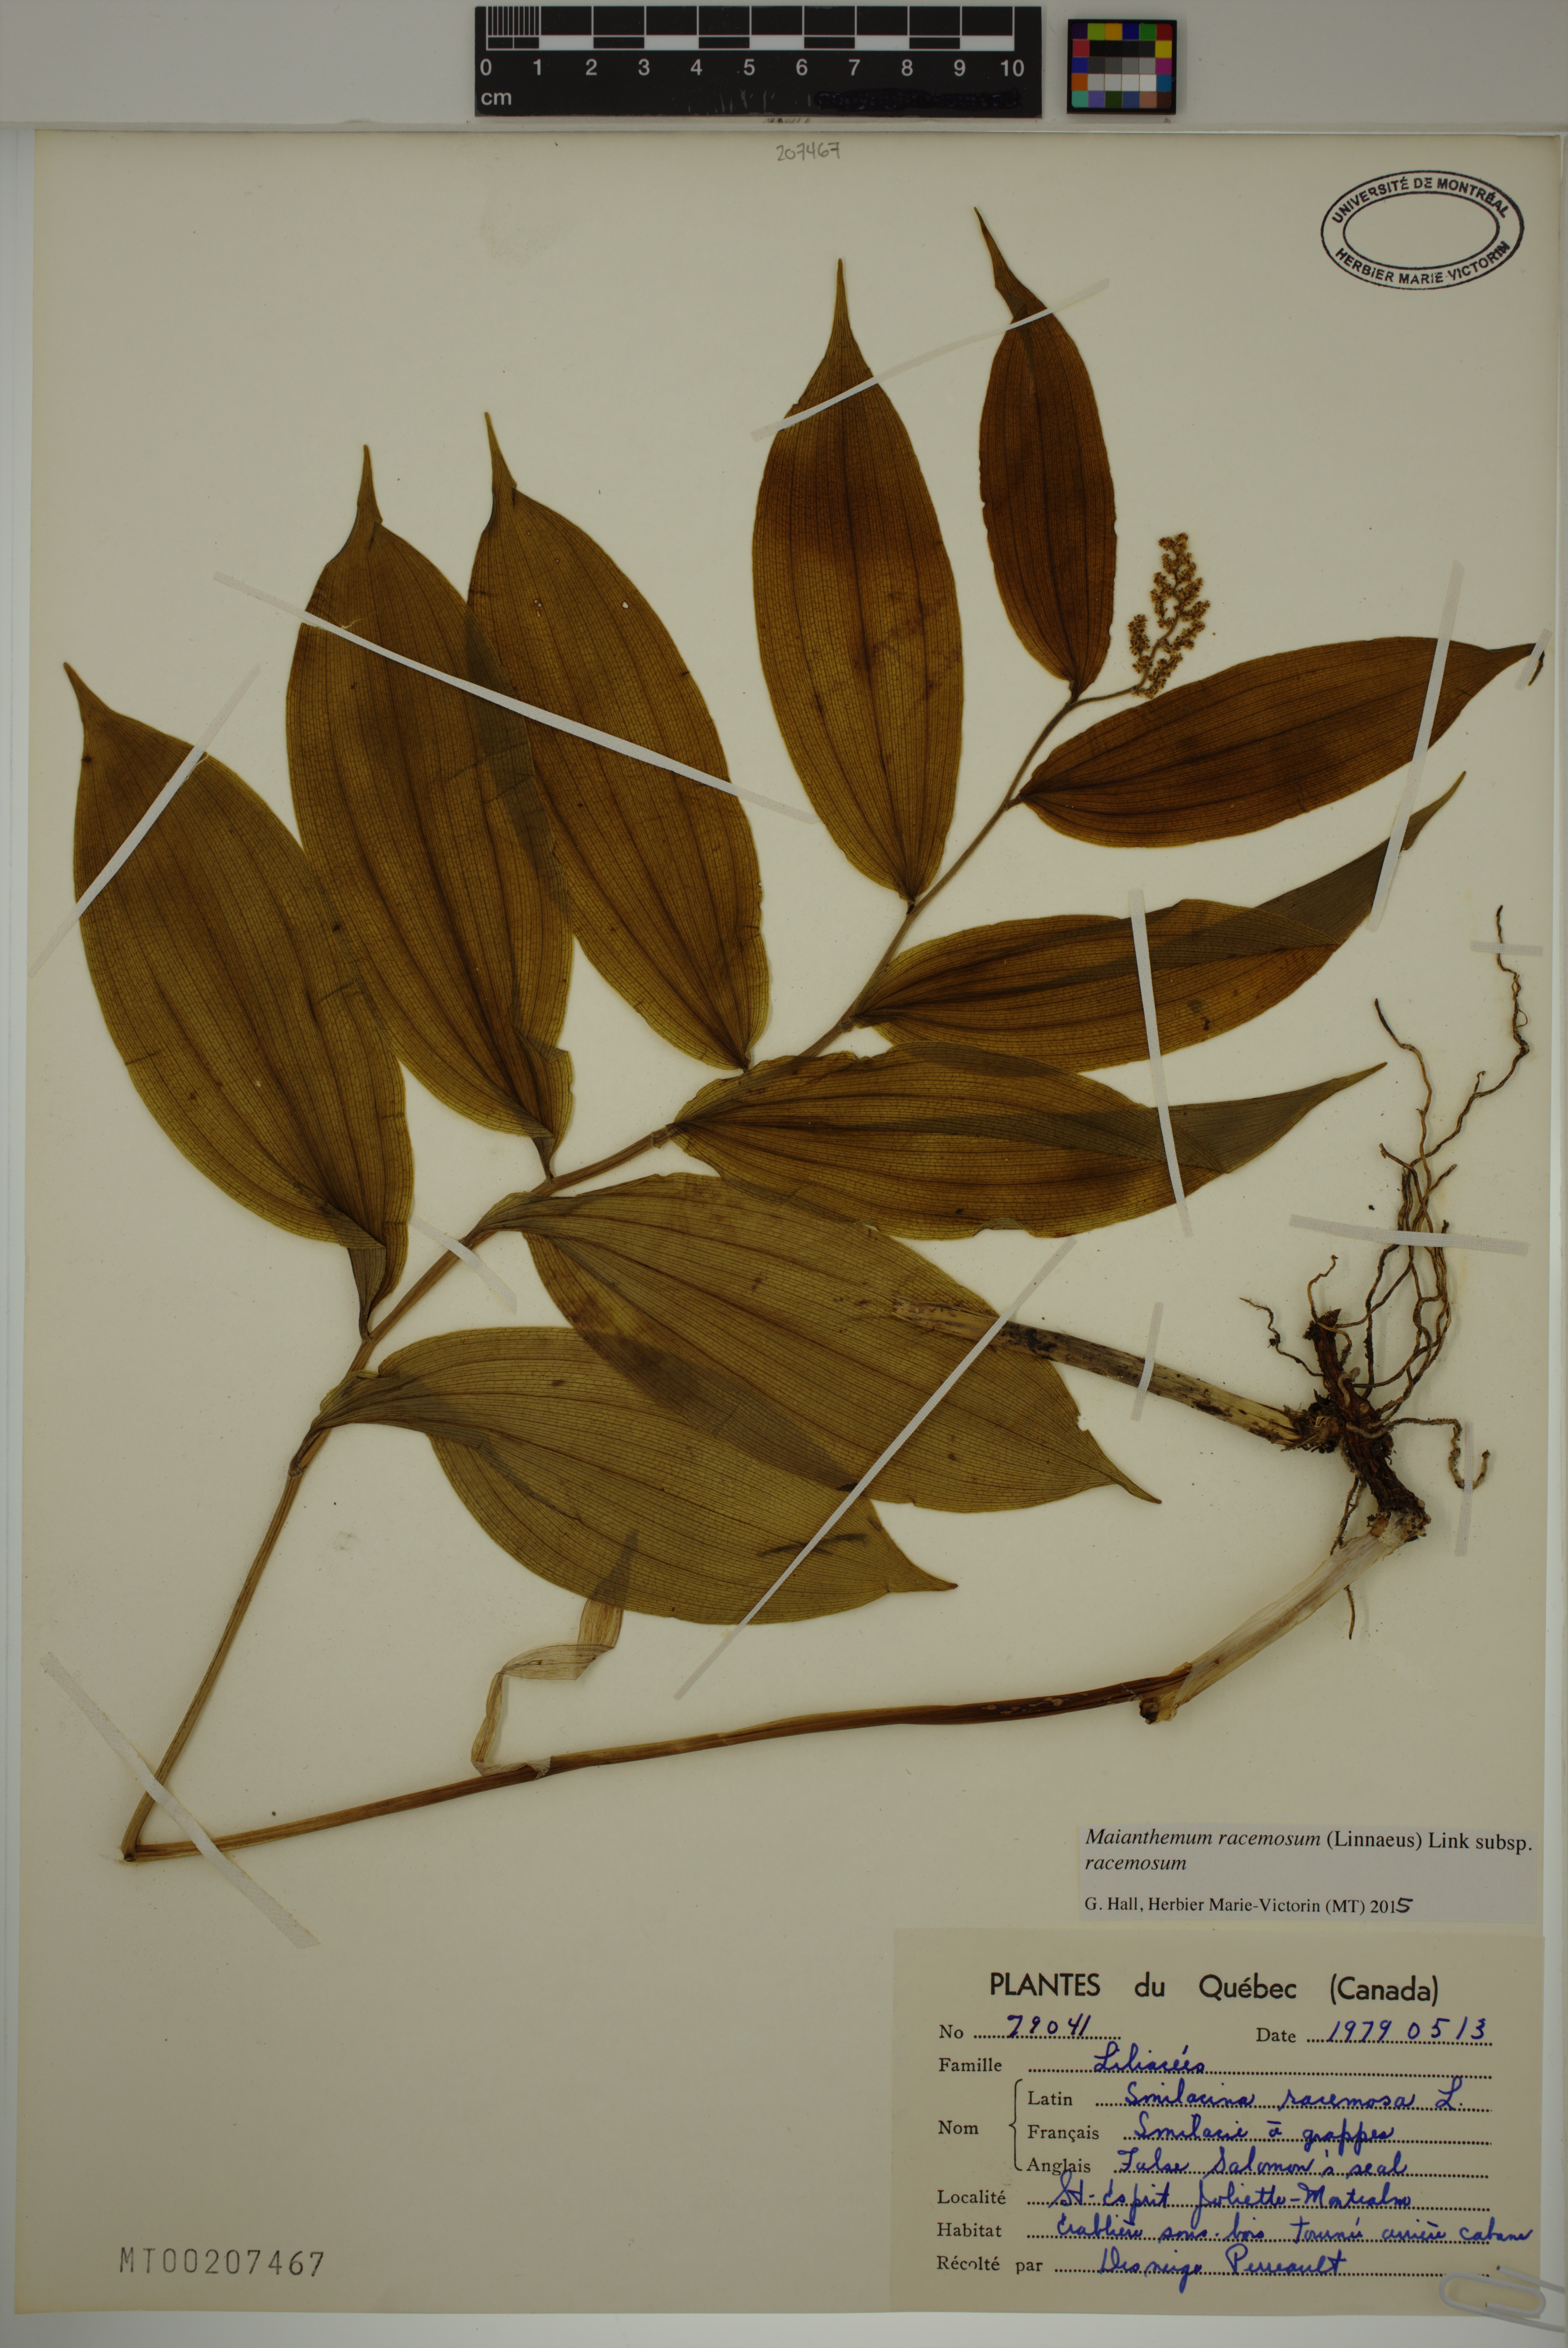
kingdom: Plantae
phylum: Tracheophyta
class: Liliopsida
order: Asparagales
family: Asparagaceae
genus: Maianthemum
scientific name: Maianthemum racemosum
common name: False spikenard
